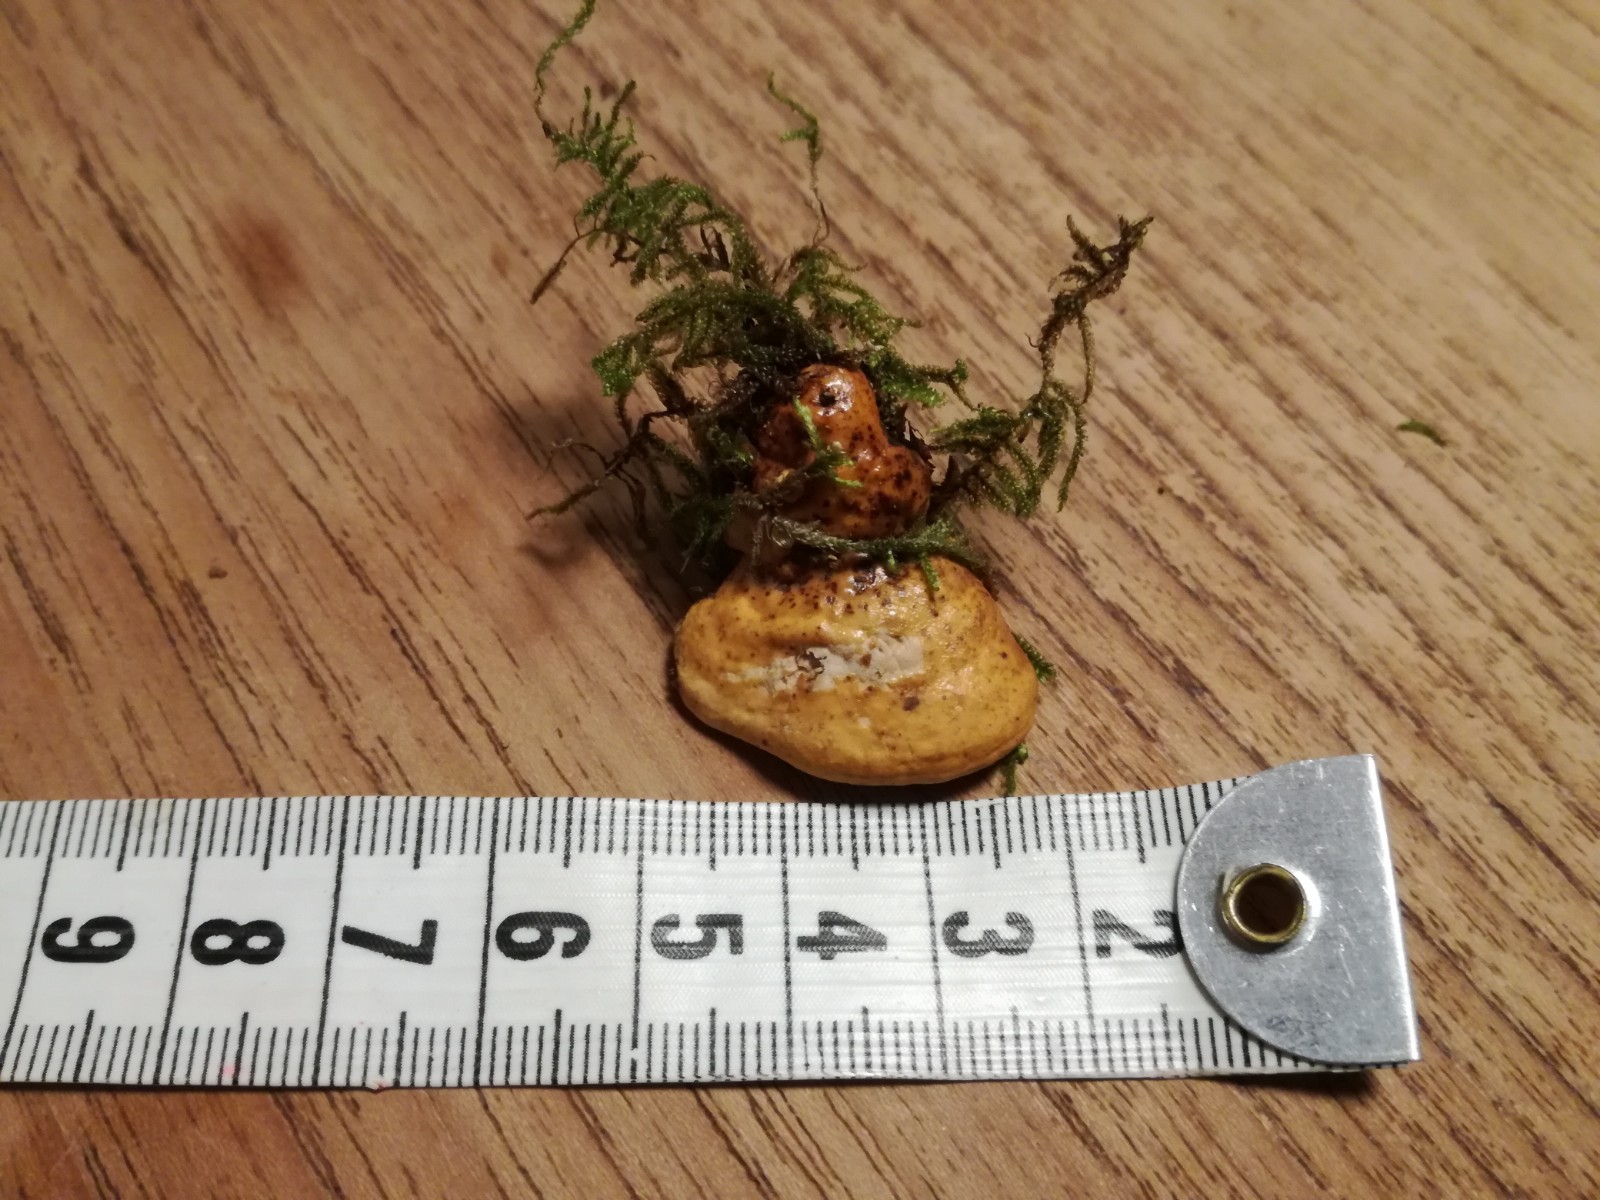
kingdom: Fungi
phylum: Basidiomycota
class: Agaricomycetes
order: Polyporales
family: Fomitopsidaceae
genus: Fomitopsis
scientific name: Fomitopsis pinicola
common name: randbæltet hovporesvamp
